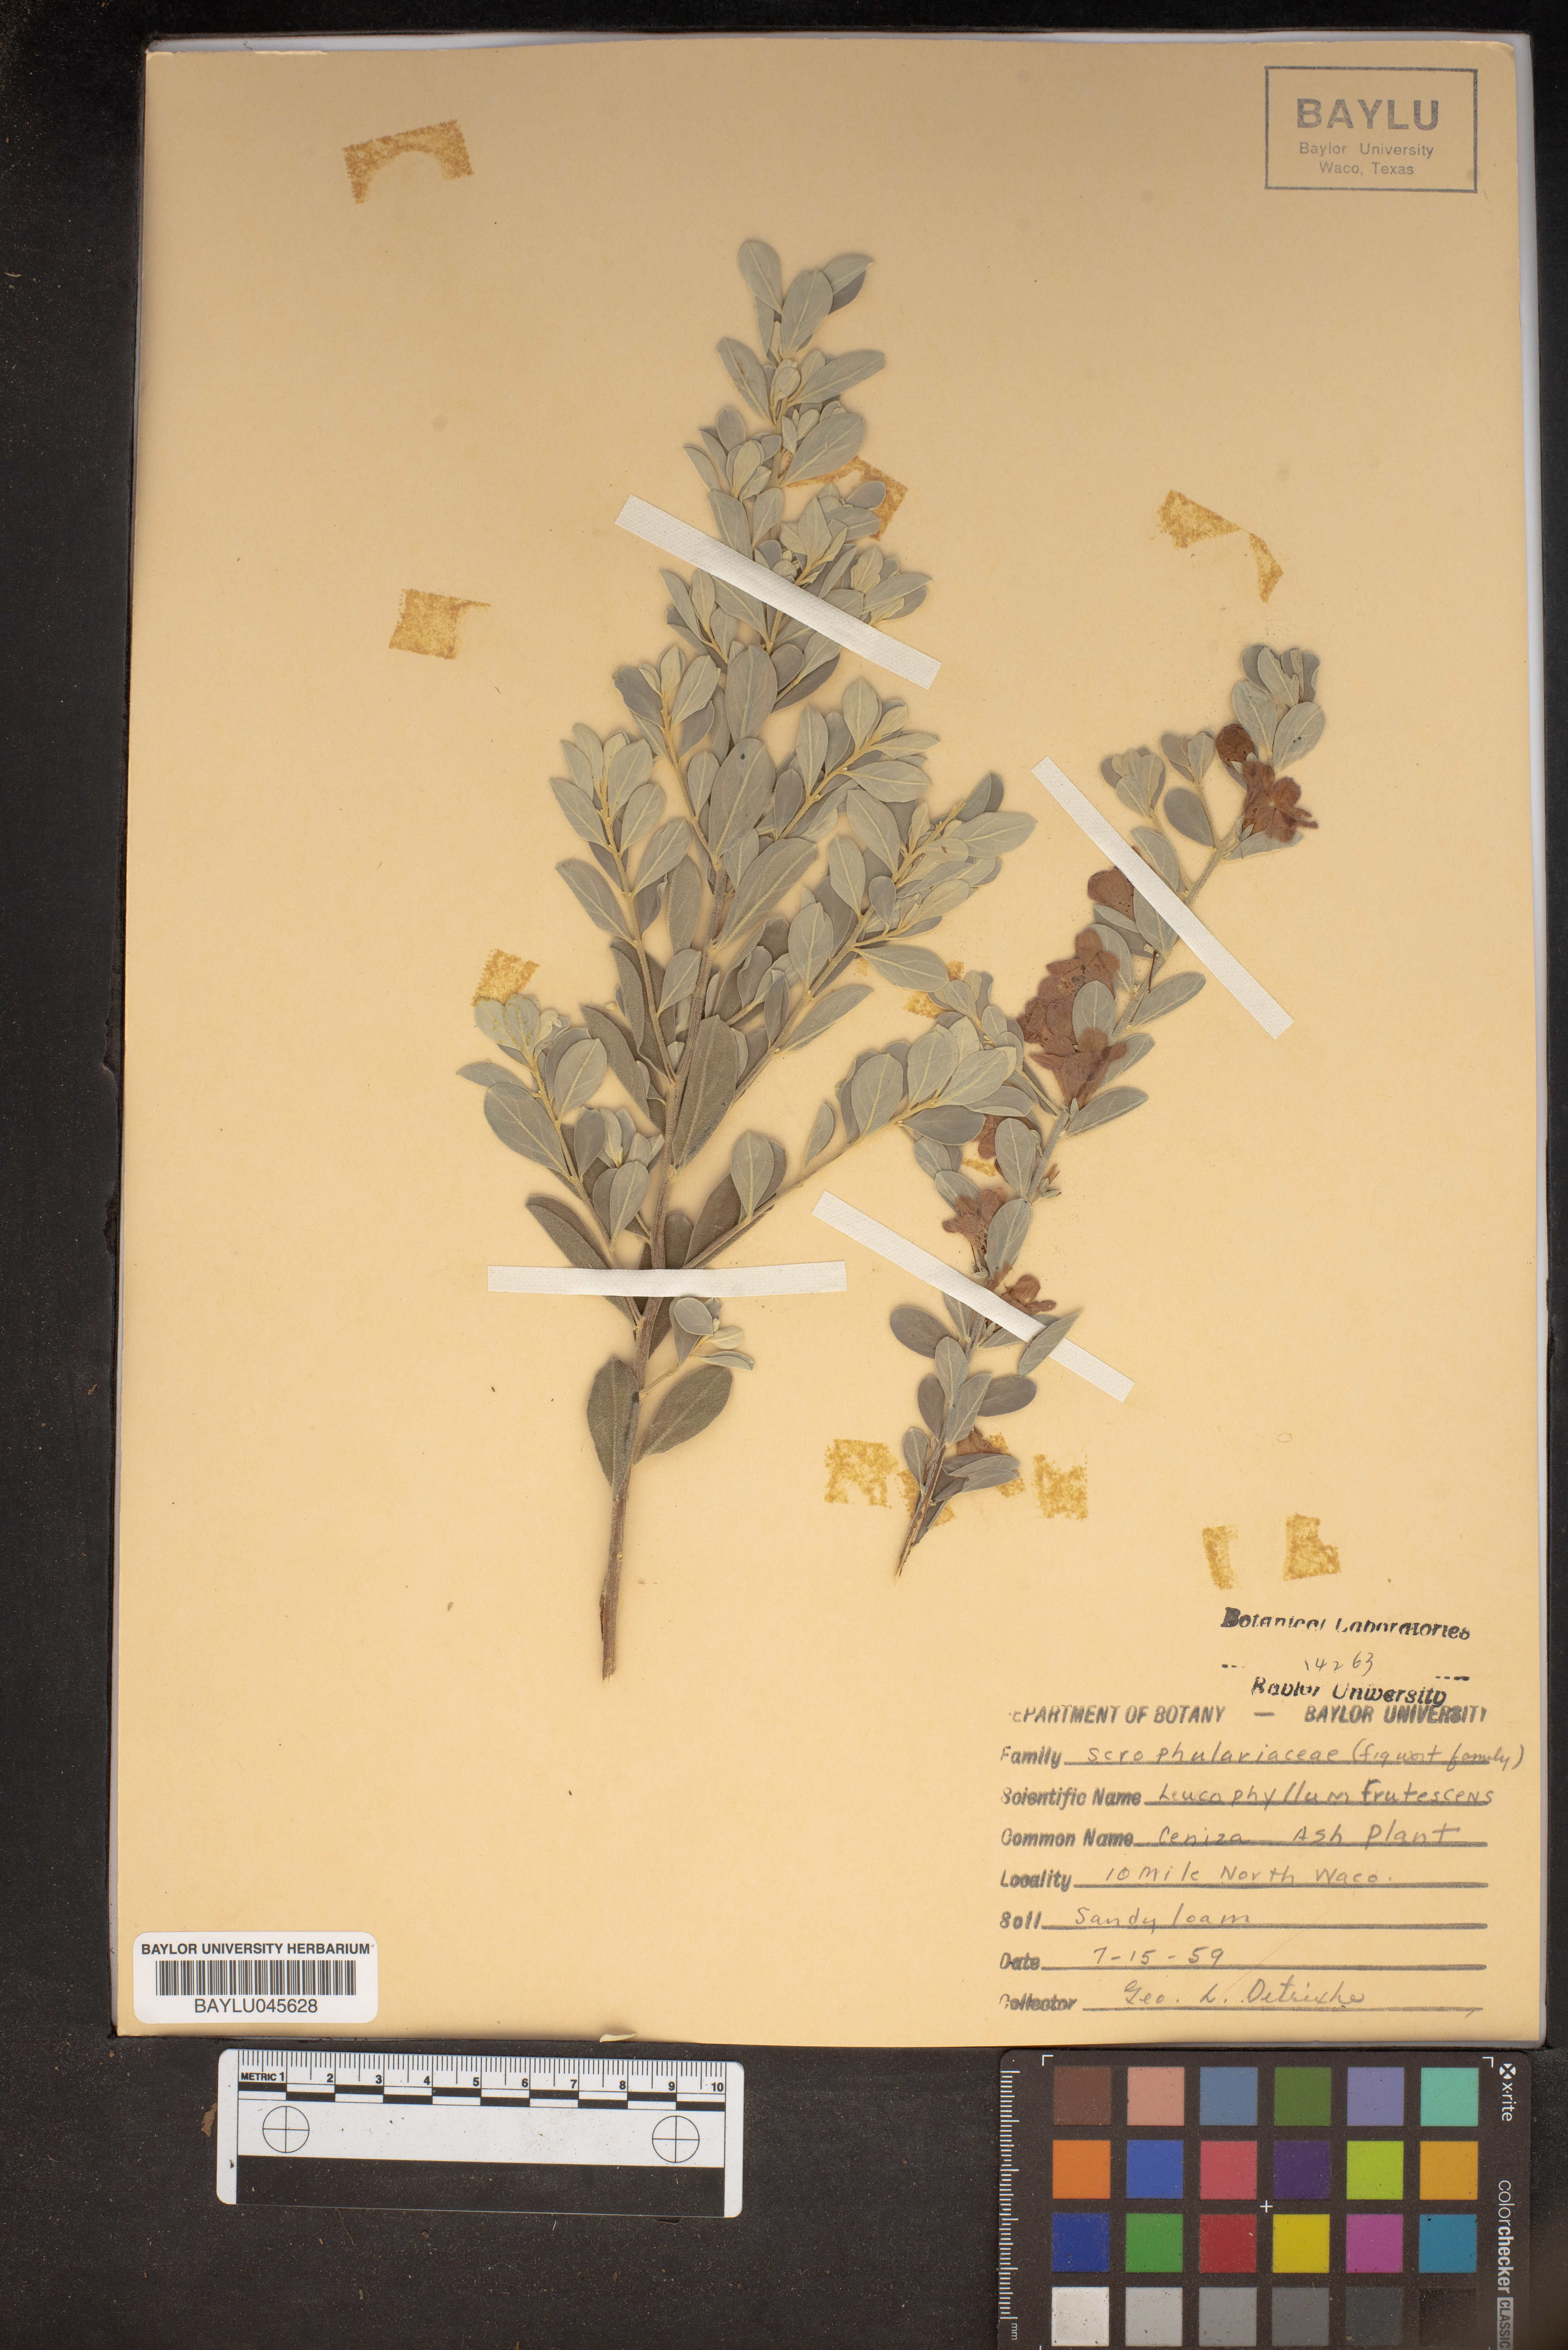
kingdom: Plantae
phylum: Tracheophyta
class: Magnoliopsida
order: Lamiales
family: Scrophulariaceae
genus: Leucophyllum
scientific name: Leucophyllum frutescens
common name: Texas silverleaf
